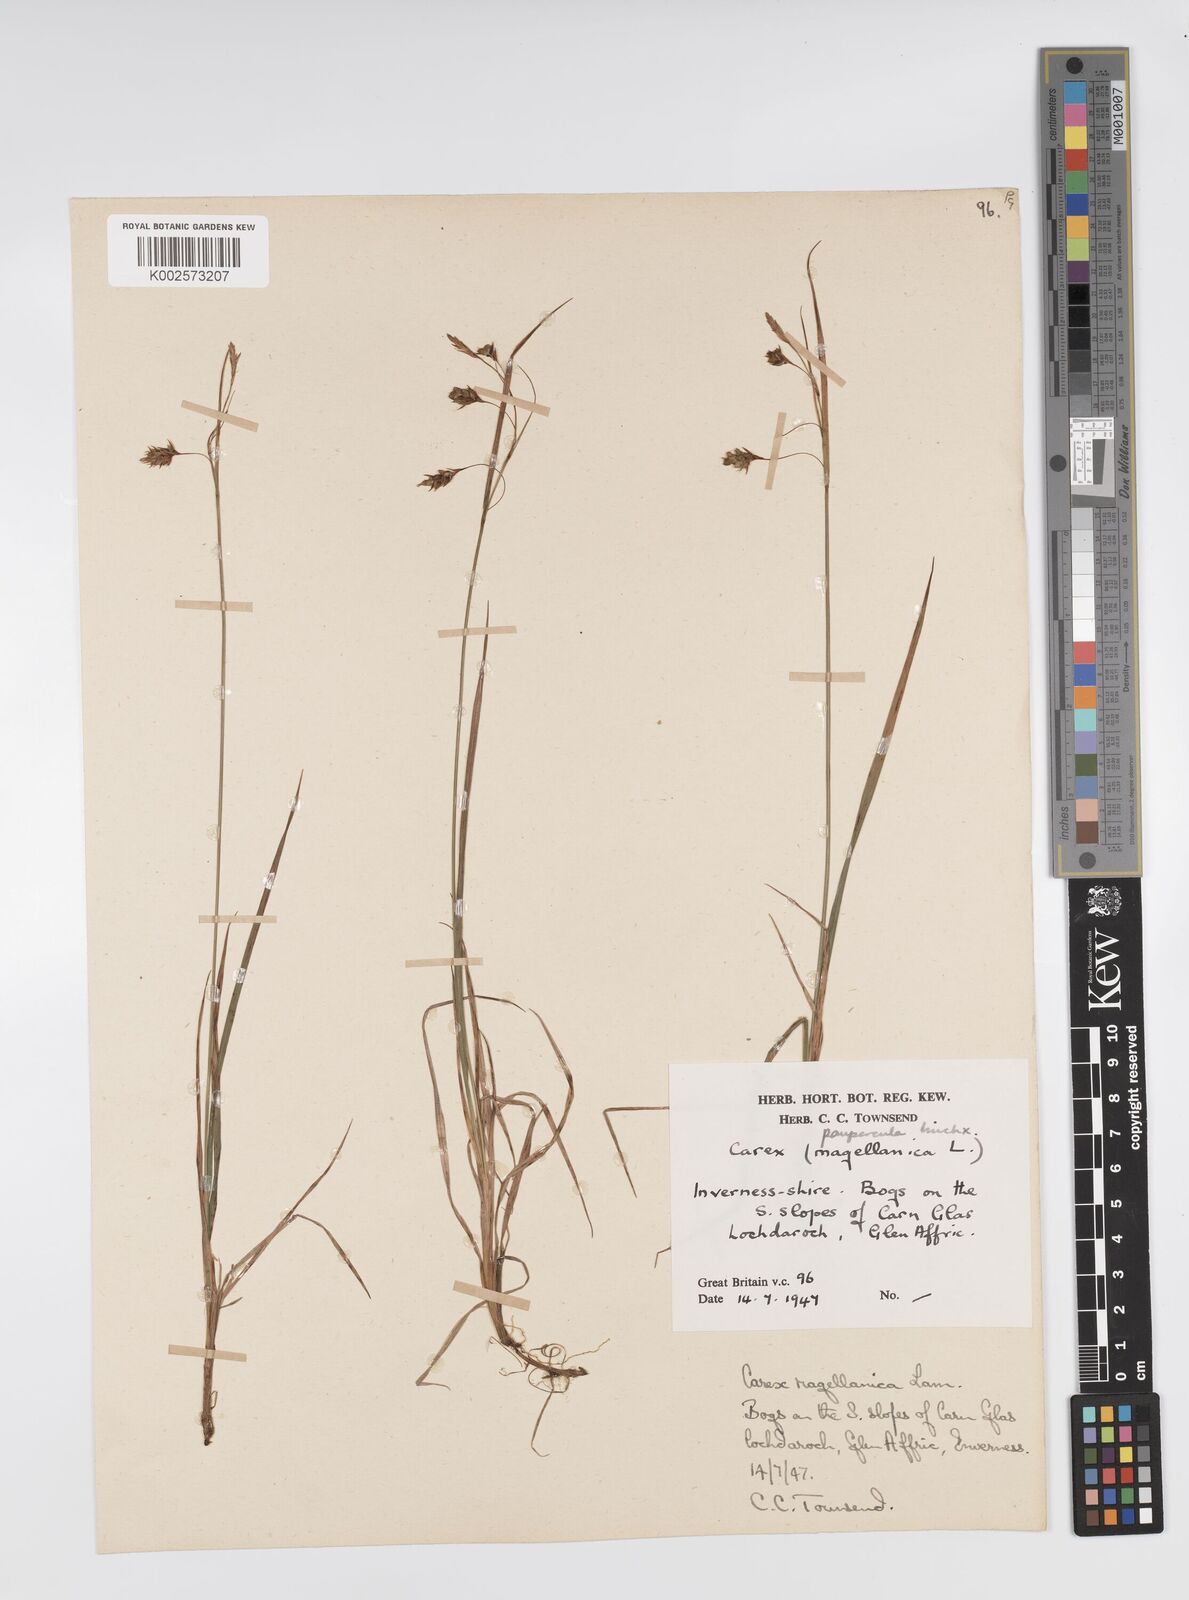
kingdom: Plantae
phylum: Tracheophyta
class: Liliopsida
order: Poales
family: Cyperaceae
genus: Carex
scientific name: Carex magellanica
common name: Bog sedge
